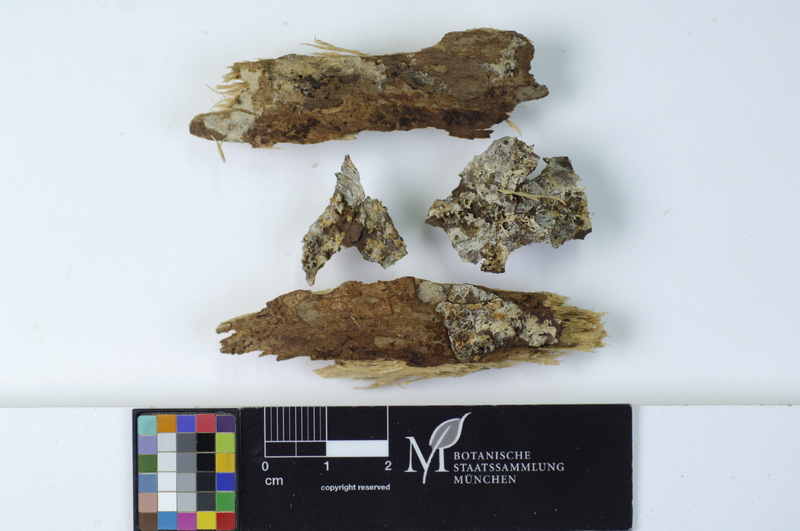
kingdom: Fungi
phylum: Basidiomycota
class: Agaricomycetes
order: Cantharellales
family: Botryobasidiaceae
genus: Botryobasidium
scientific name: Botryobasidium vagum
